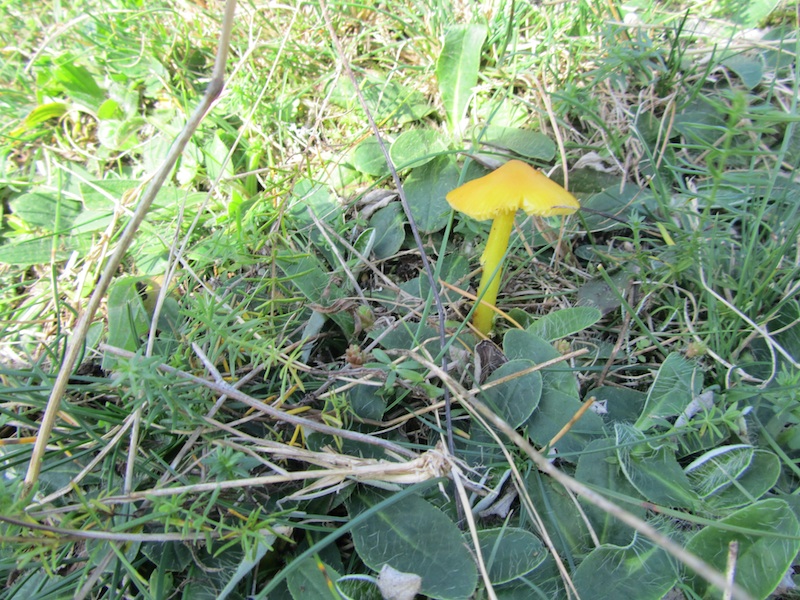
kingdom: Fungi
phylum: Basidiomycota
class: Agaricomycetes
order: Agaricales
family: Hygrophoraceae
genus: Hygrocybe
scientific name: Hygrocybe acutoconica
